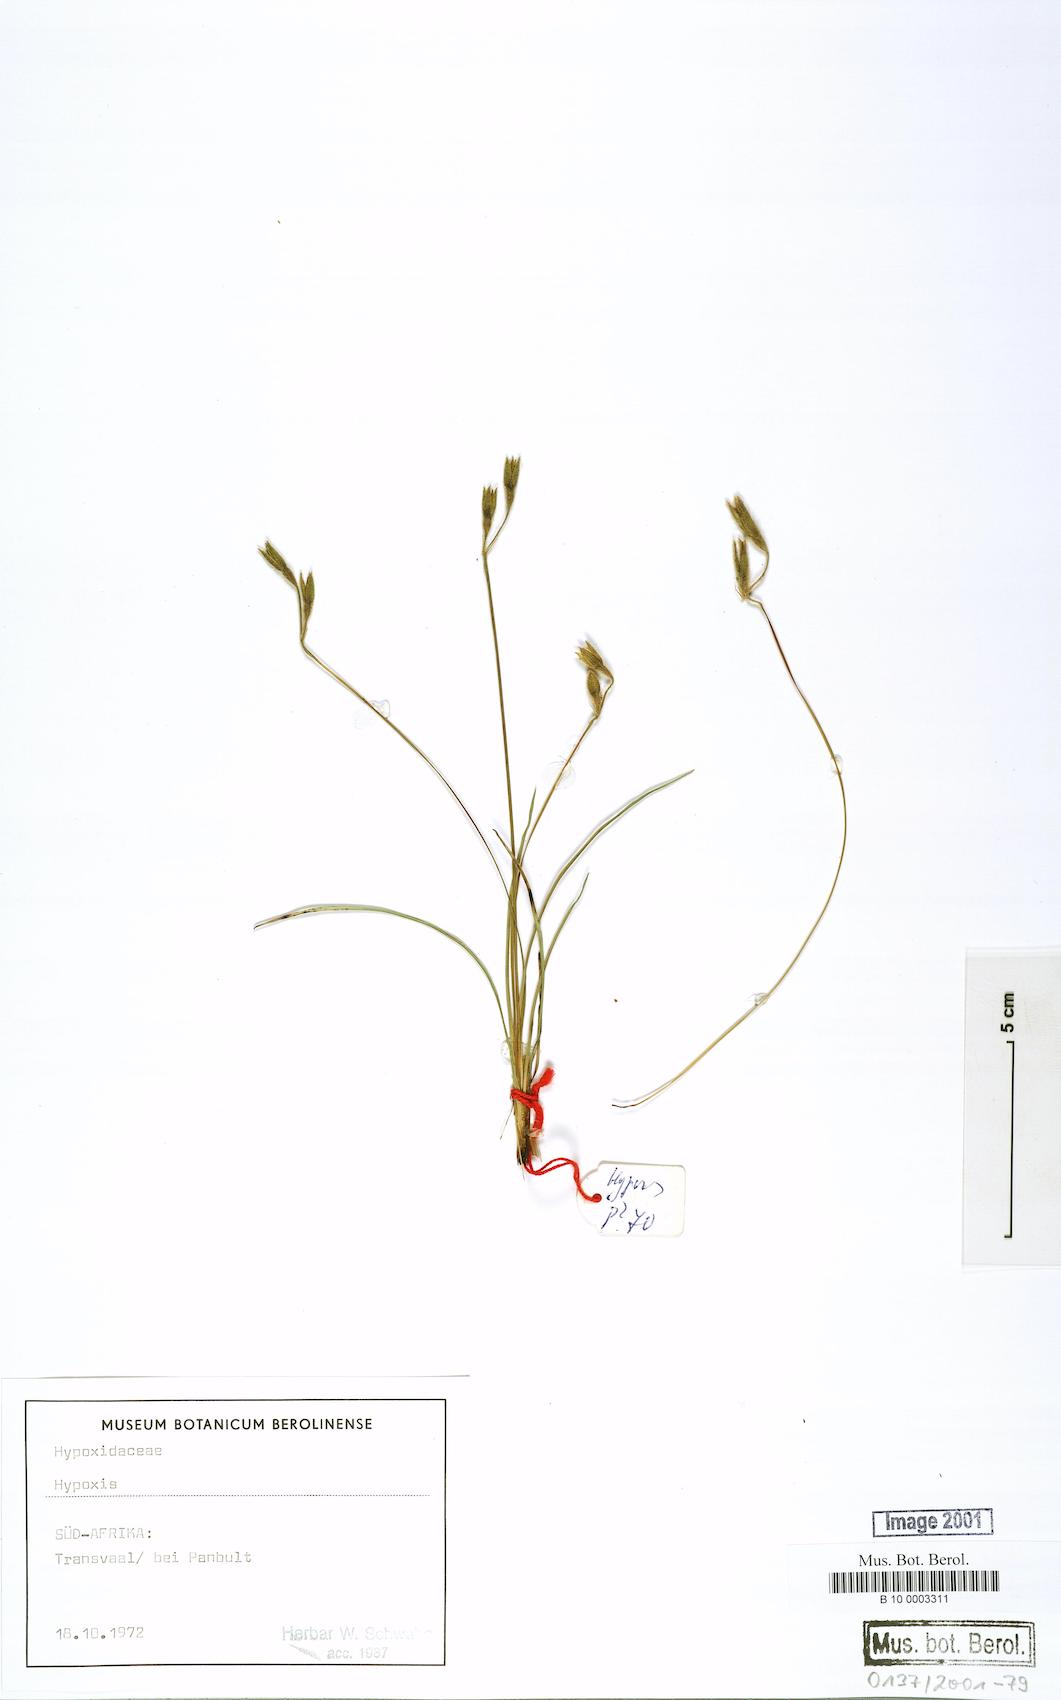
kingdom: Plantae
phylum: Tracheophyta
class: Liliopsida
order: Asparagales
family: Hypoxidaceae
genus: Hypoxis
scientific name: Hypoxis
